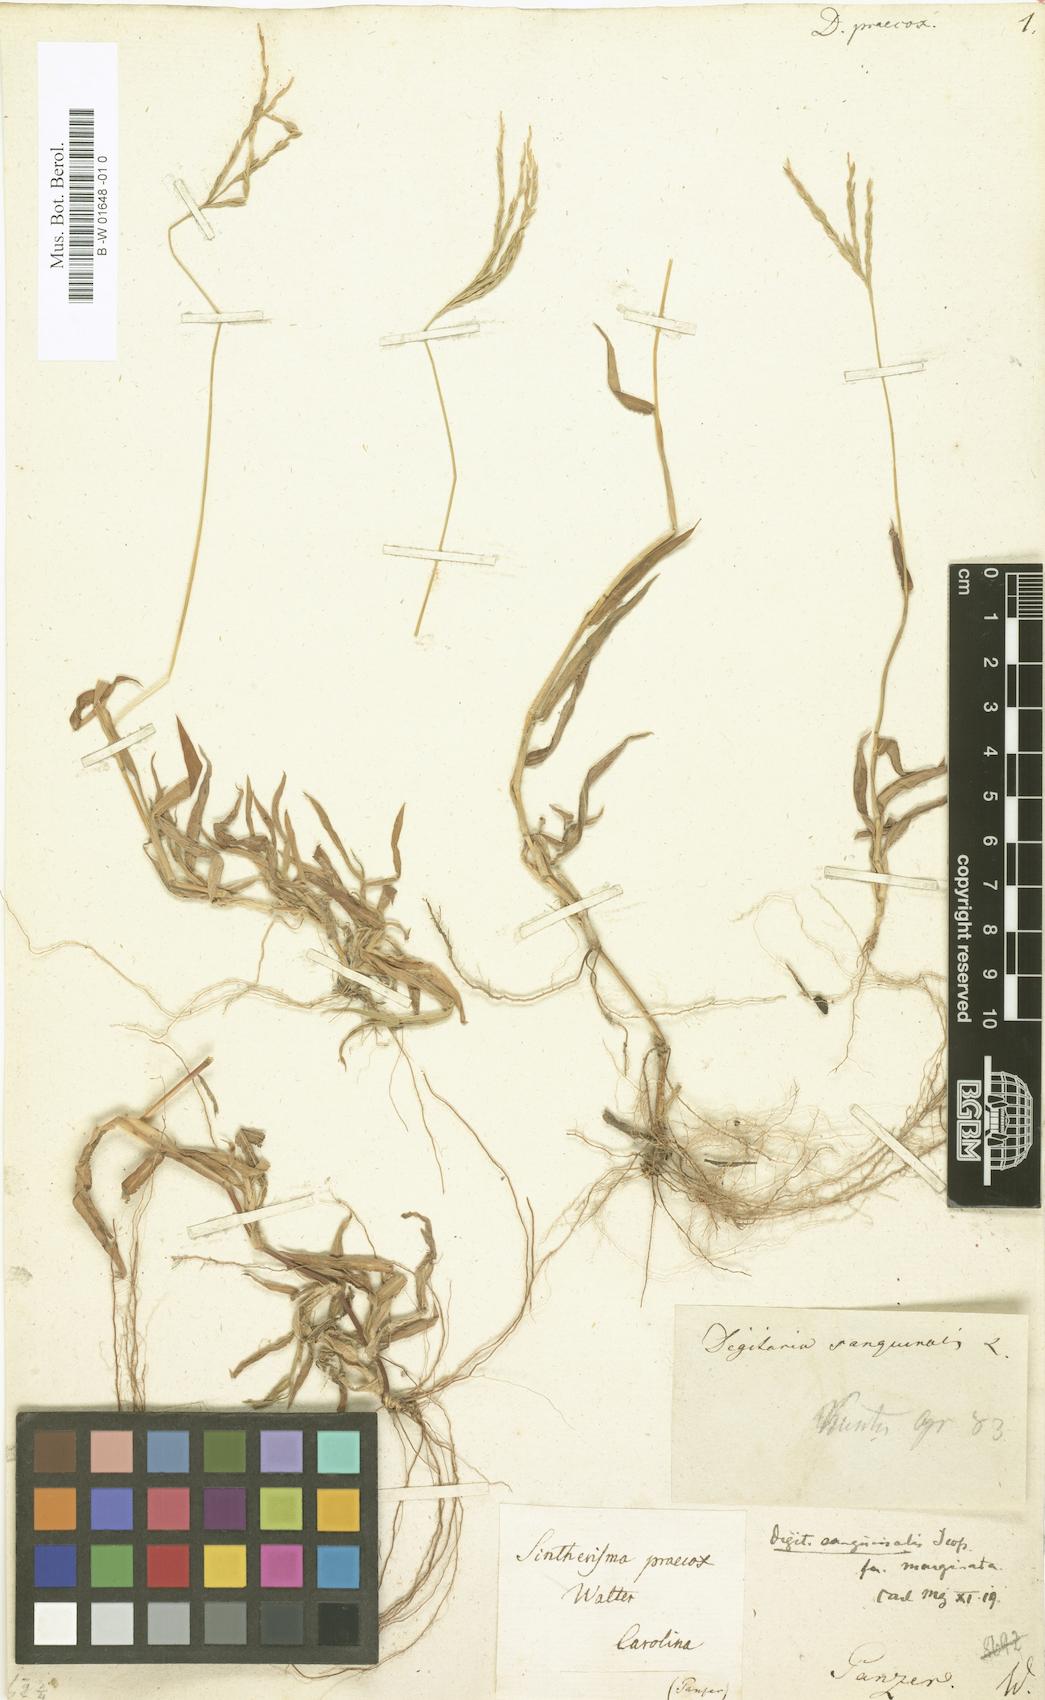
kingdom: Plantae
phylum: Tracheophyta
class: Liliopsida
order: Poales
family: Poaceae
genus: Digitaria
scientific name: Digitaria sanguinalis
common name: Hairy crabgrass
